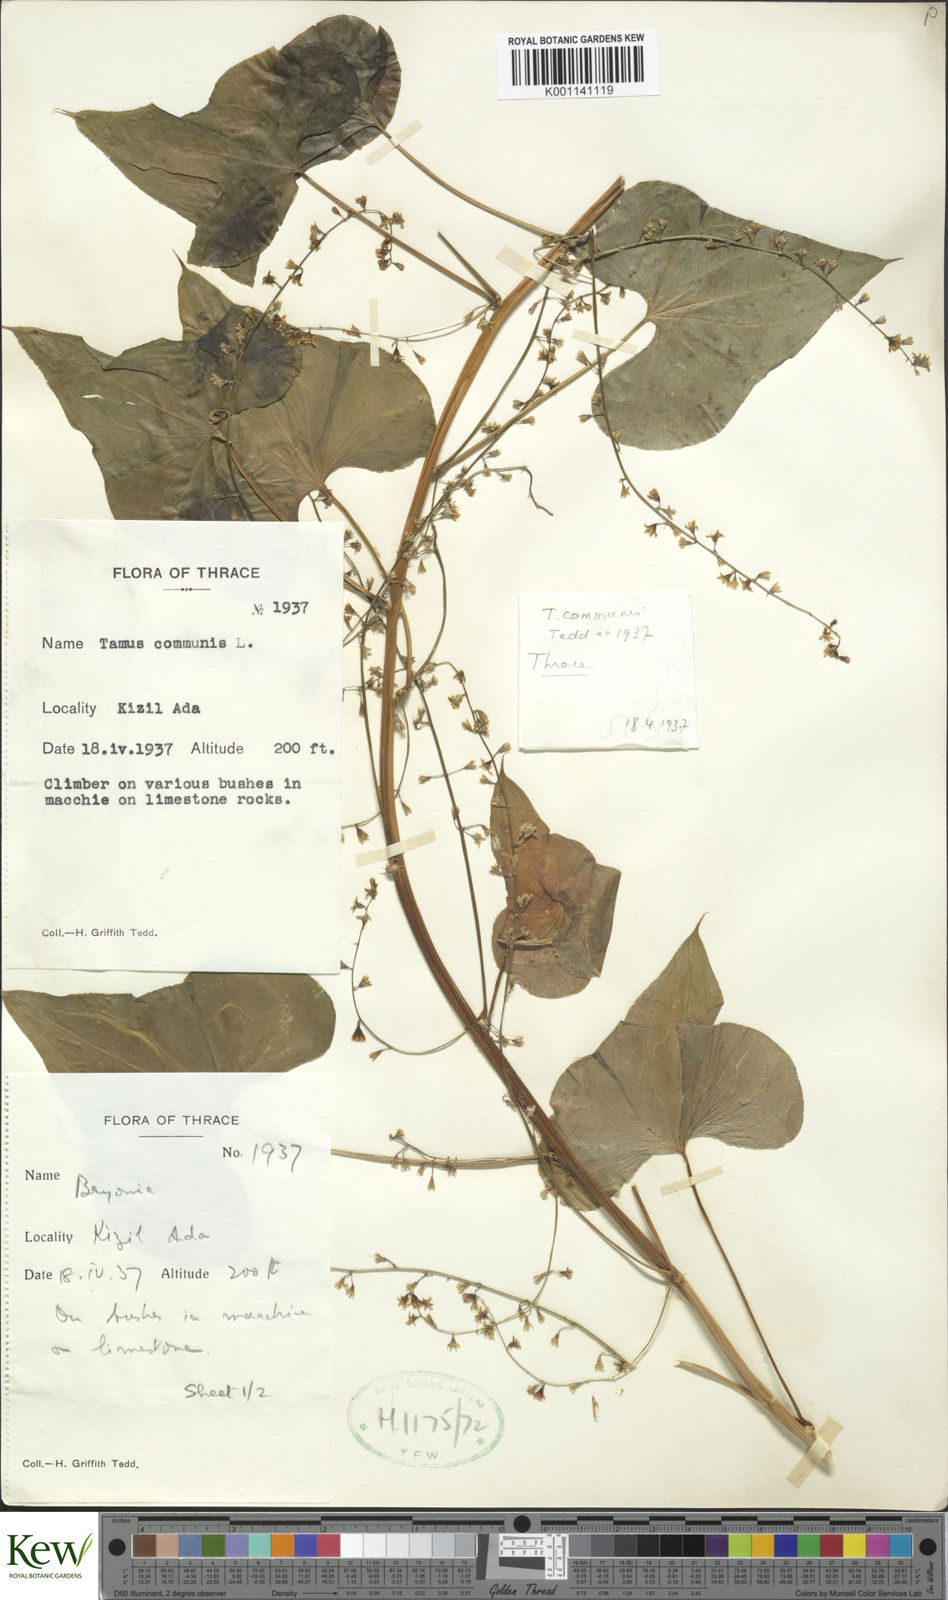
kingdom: Plantae
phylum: Tracheophyta
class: Liliopsida
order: Dioscoreales
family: Dioscoreaceae
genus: Dioscorea
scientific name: Dioscorea communis
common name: Black-bindweed
